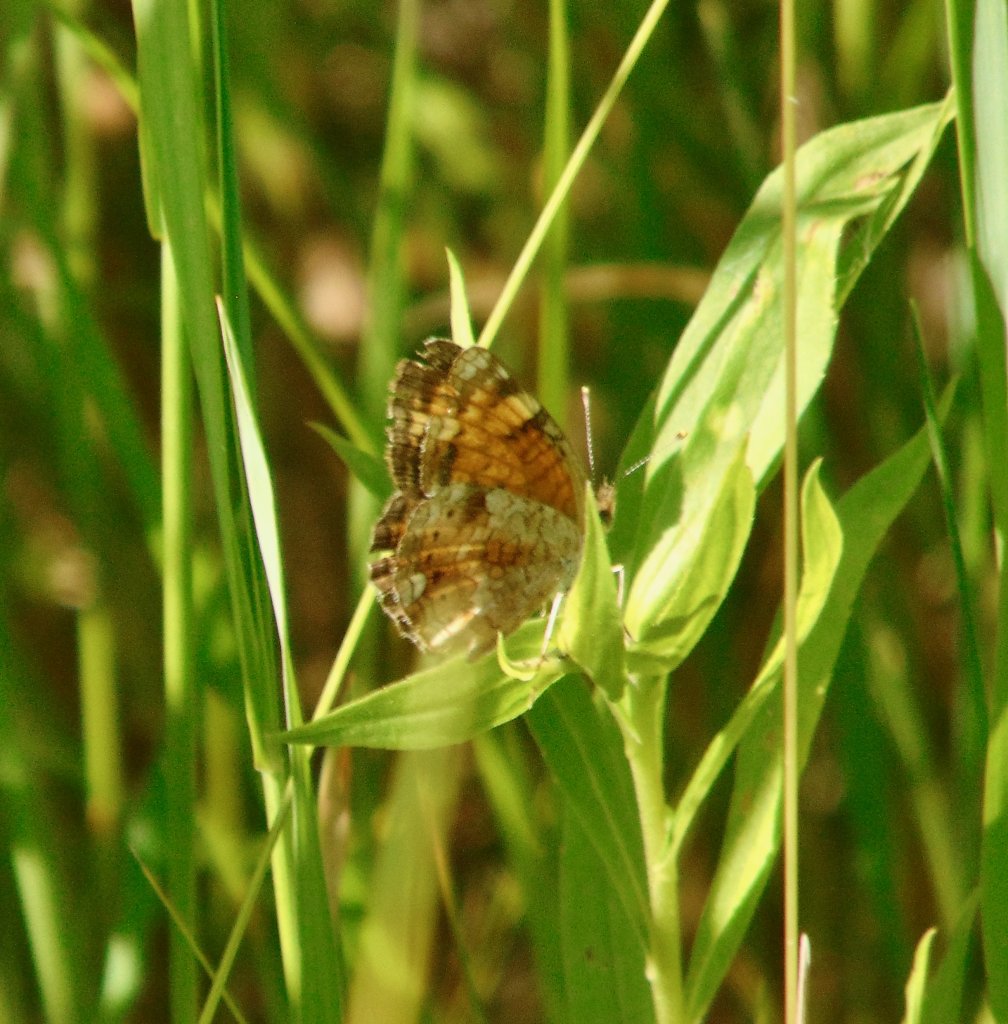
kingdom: Animalia
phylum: Arthropoda
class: Insecta
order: Lepidoptera
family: Nymphalidae
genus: Phyciodes
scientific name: Phyciodes tharos
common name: Pearl Crescent
